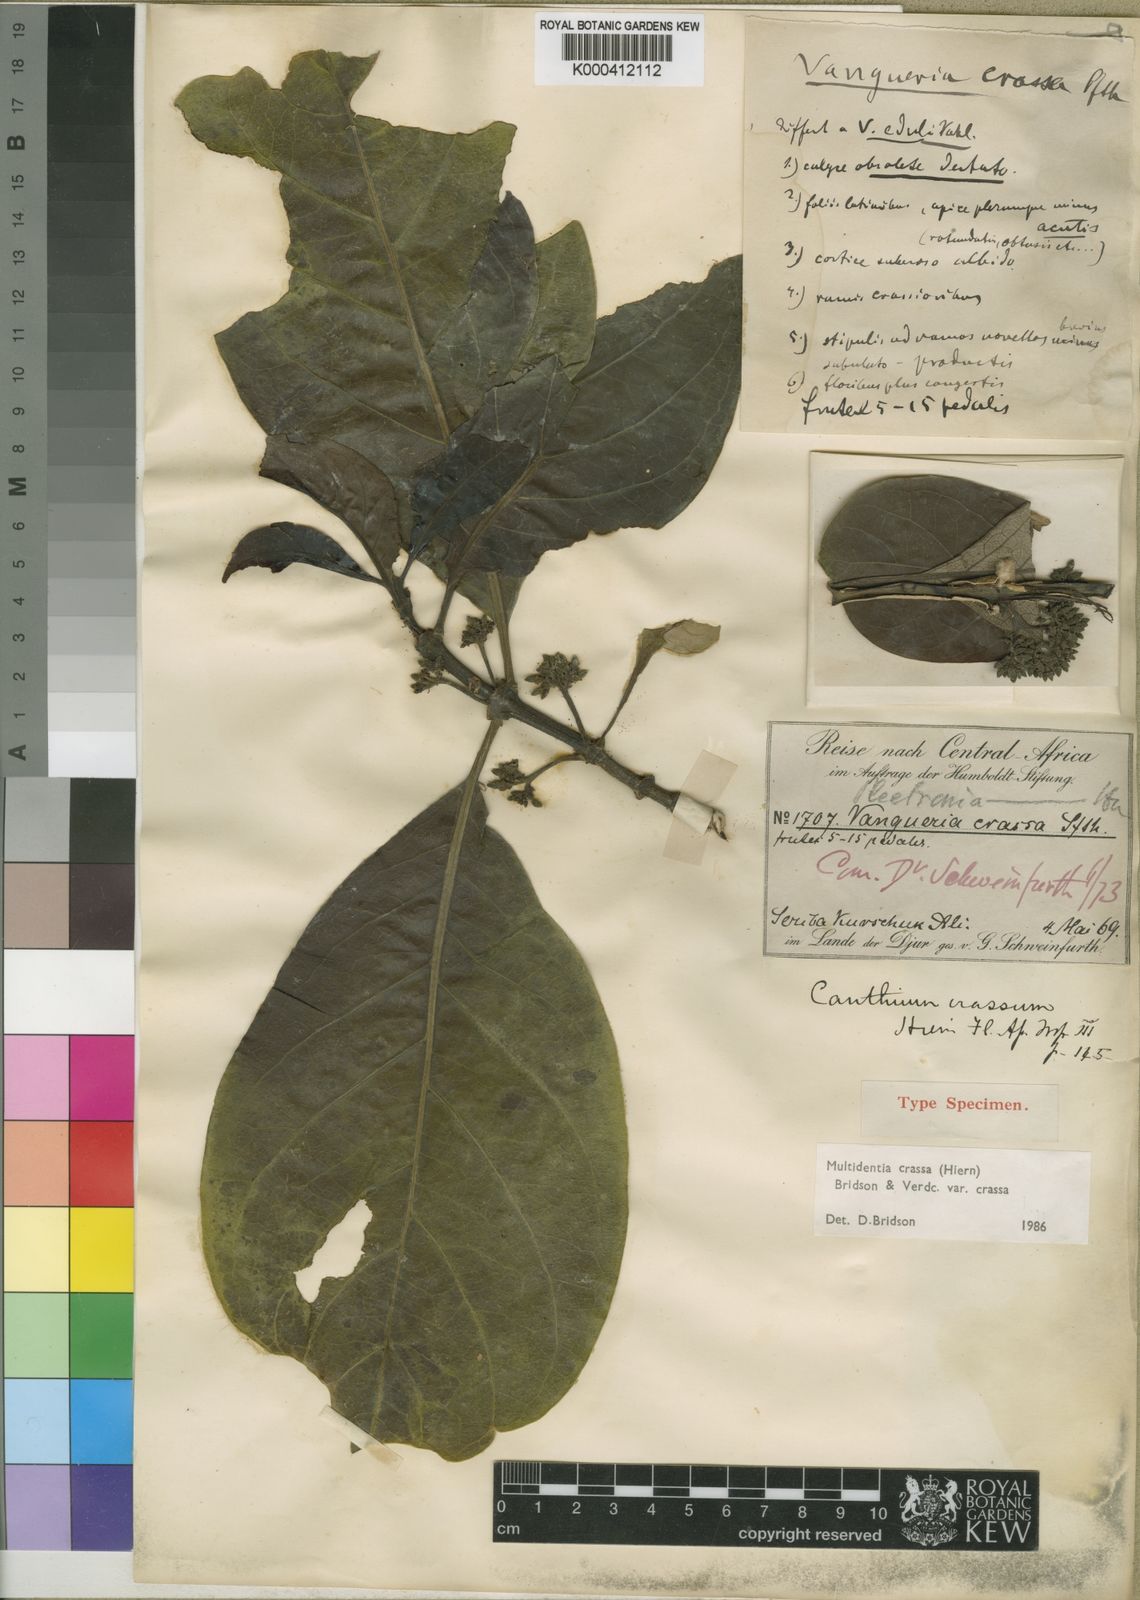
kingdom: Plantae
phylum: Tracheophyta
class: Magnoliopsida
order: Gentianales
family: Rubiaceae
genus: Multidentia
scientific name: Multidentia crassa
